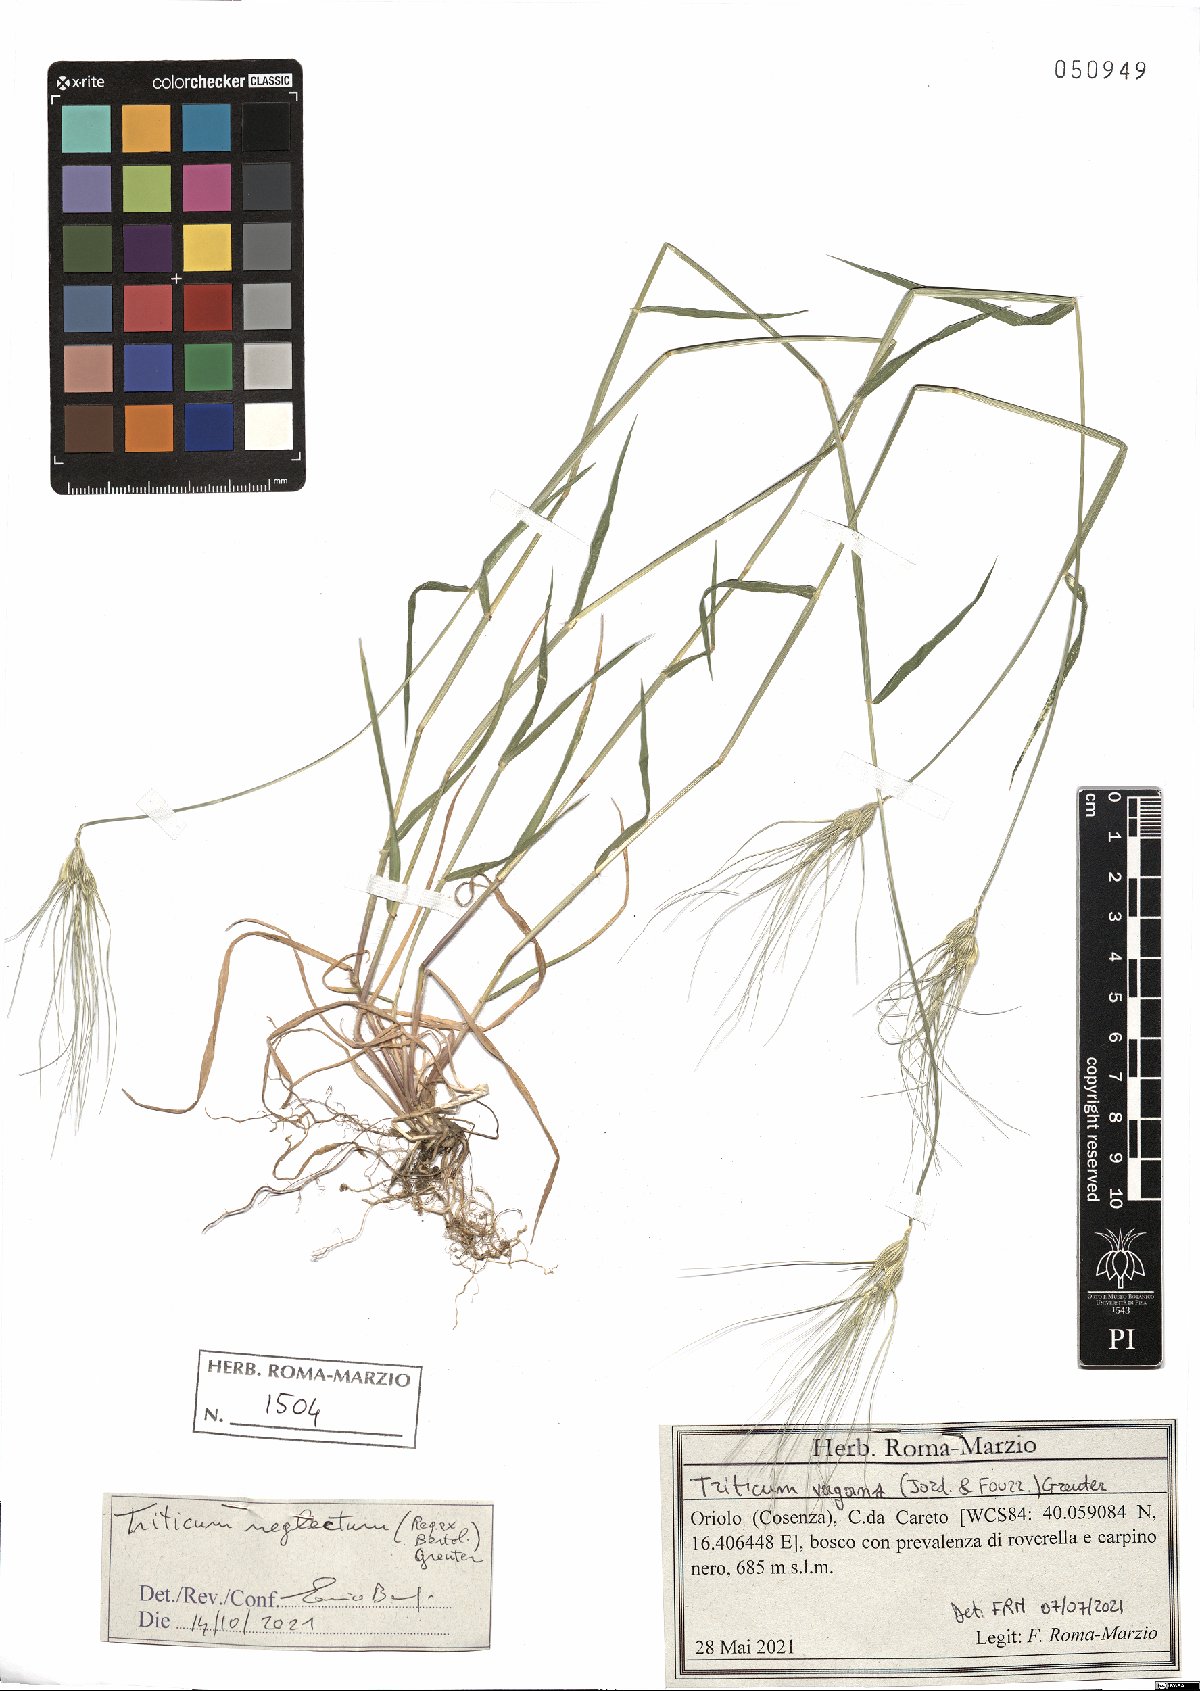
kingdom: Plantae
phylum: Tracheophyta
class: Liliopsida
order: Poales
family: Poaceae
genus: Aegilops
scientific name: Aegilops neglecta
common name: Three-awn goat grass
